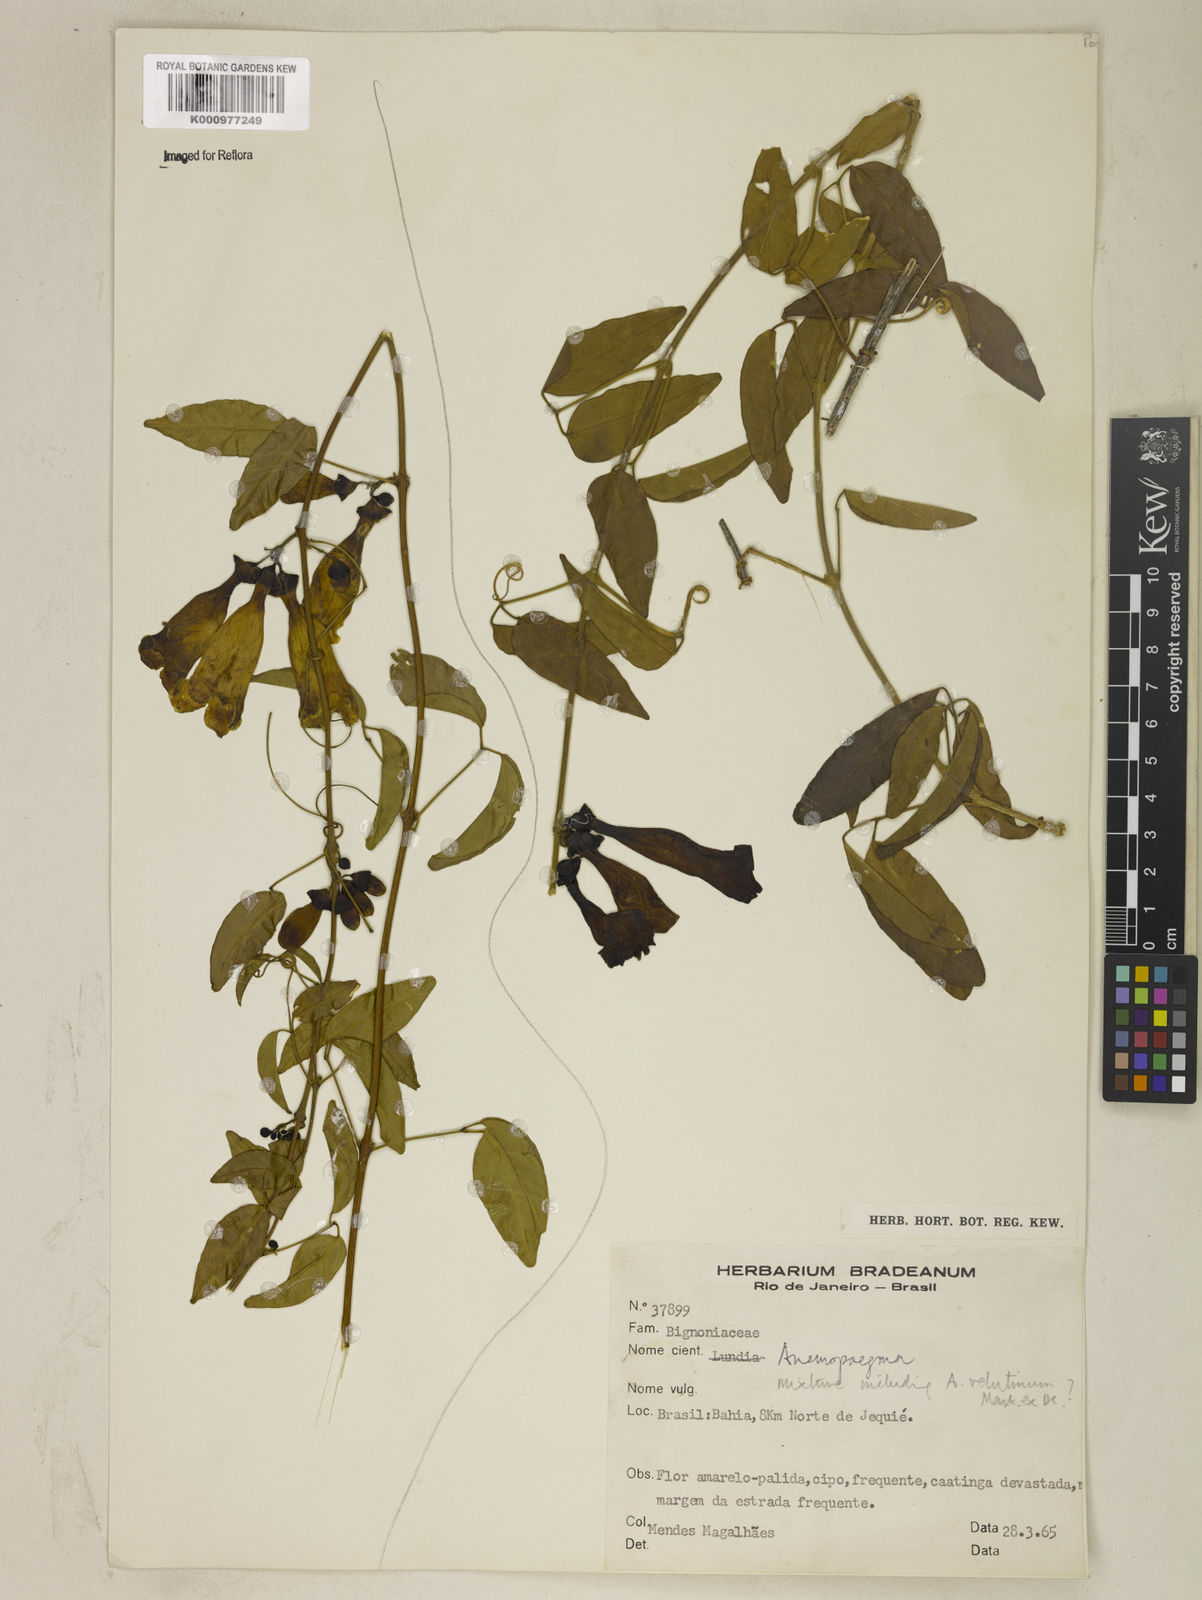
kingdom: Plantae
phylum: Tracheophyta
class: Magnoliopsida
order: Lamiales
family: Bignoniaceae
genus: Anemopaegma
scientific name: Anemopaegma velutinum
